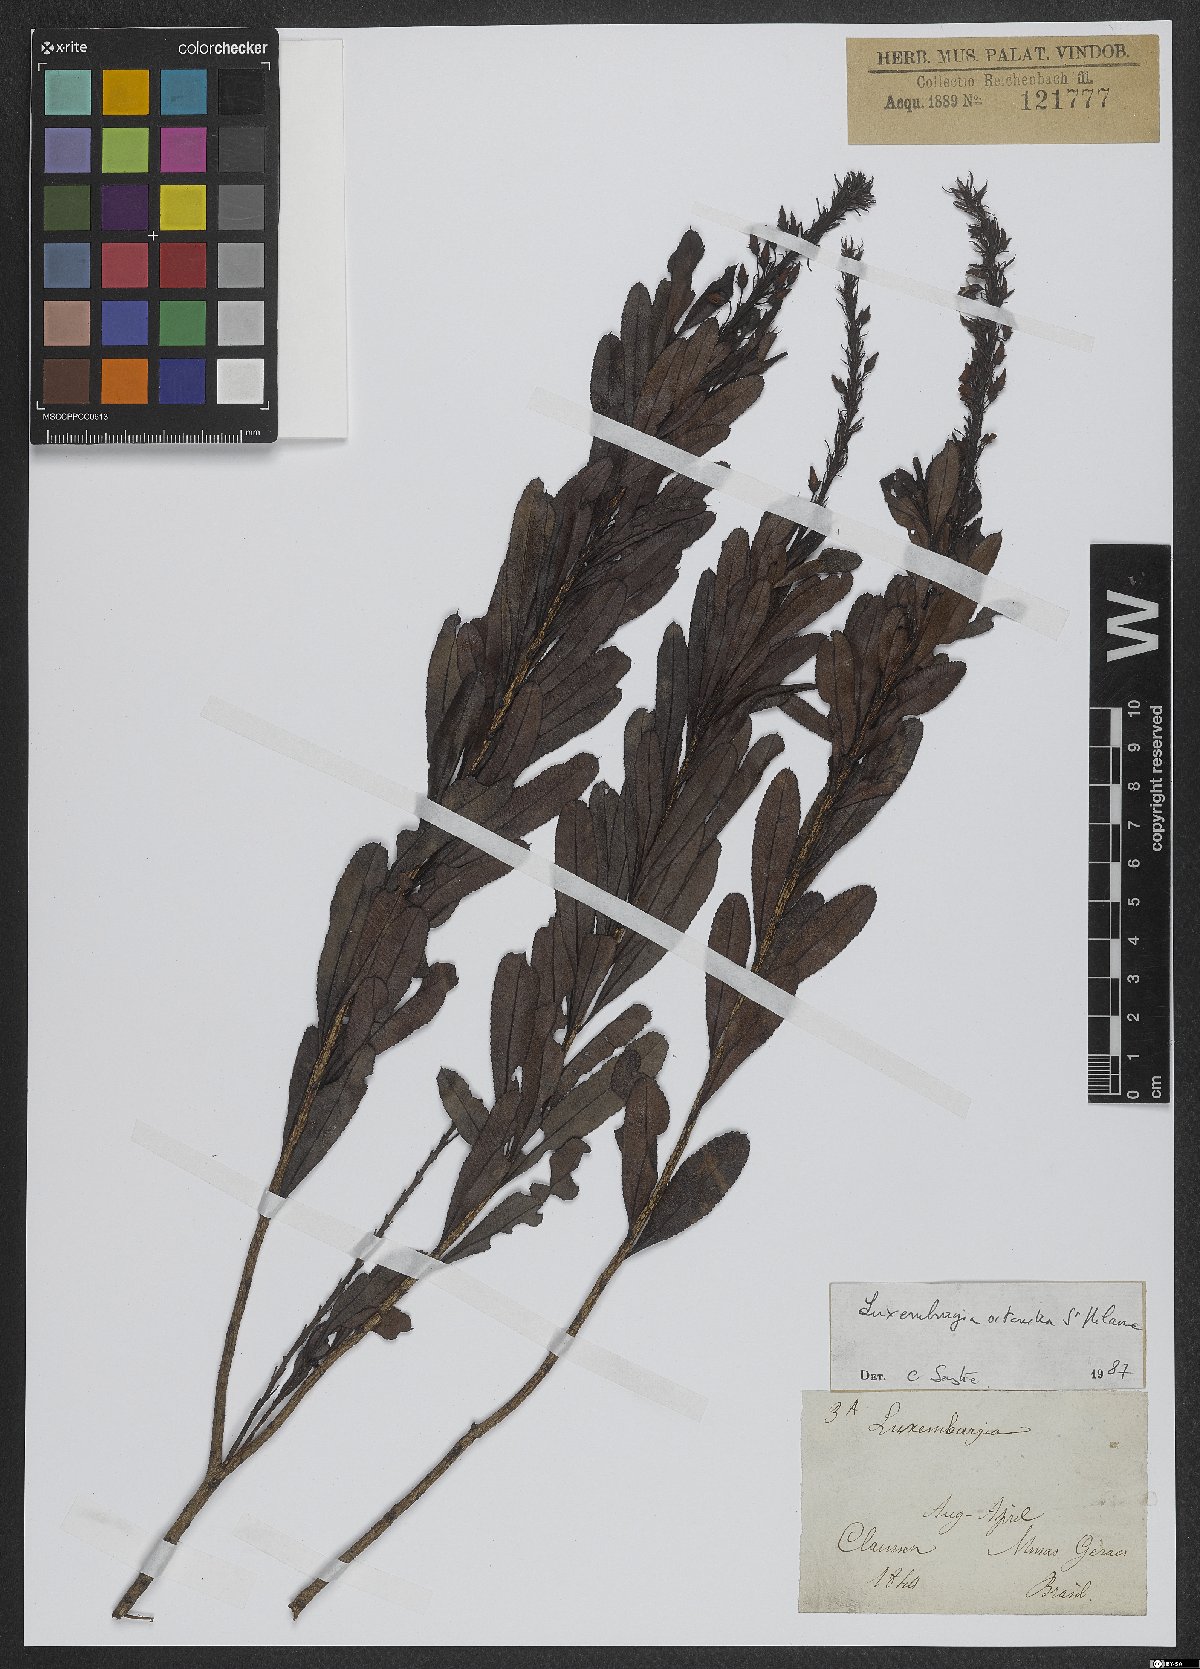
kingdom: Plantae
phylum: Tracheophyta
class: Magnoliopsida
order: Malpighiales
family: Ochnaceae
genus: Luxemburgia
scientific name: Luxemburgia octandra
